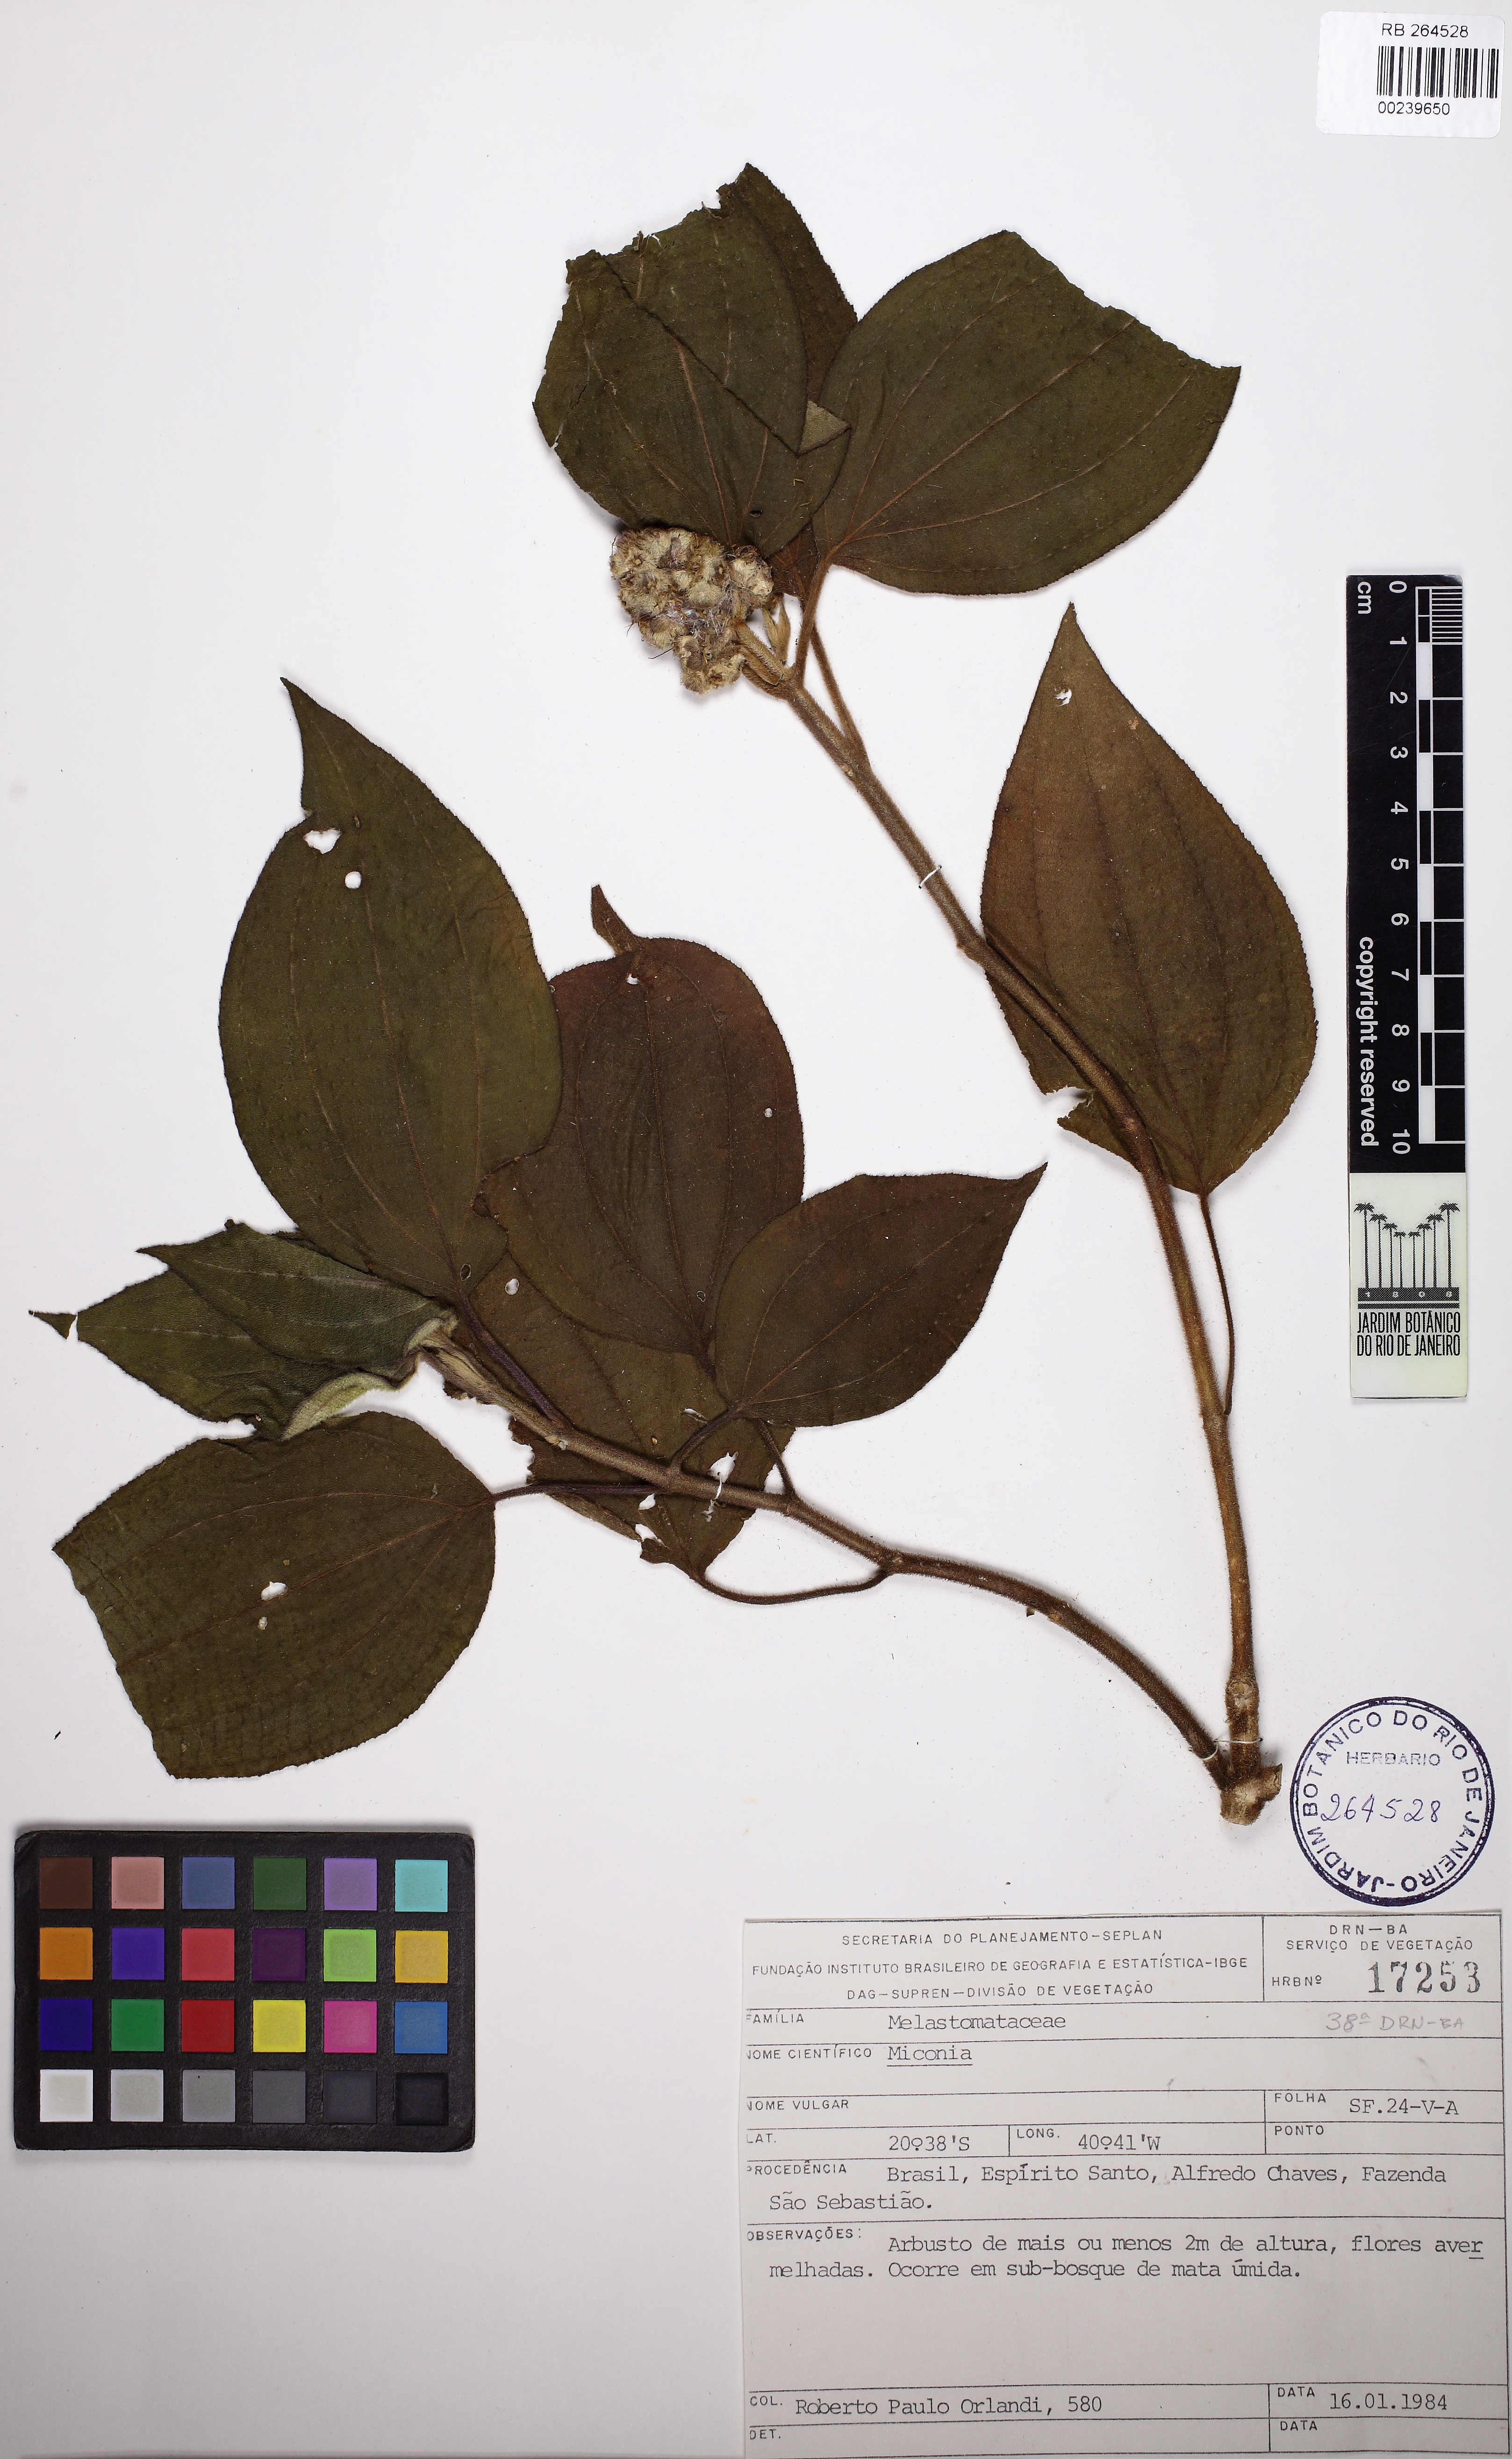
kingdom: Plantae
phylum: Tracheophyta
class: Magnoliopsida
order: Myrtales
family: Melastomataceae
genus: Miconia
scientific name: Miconia
